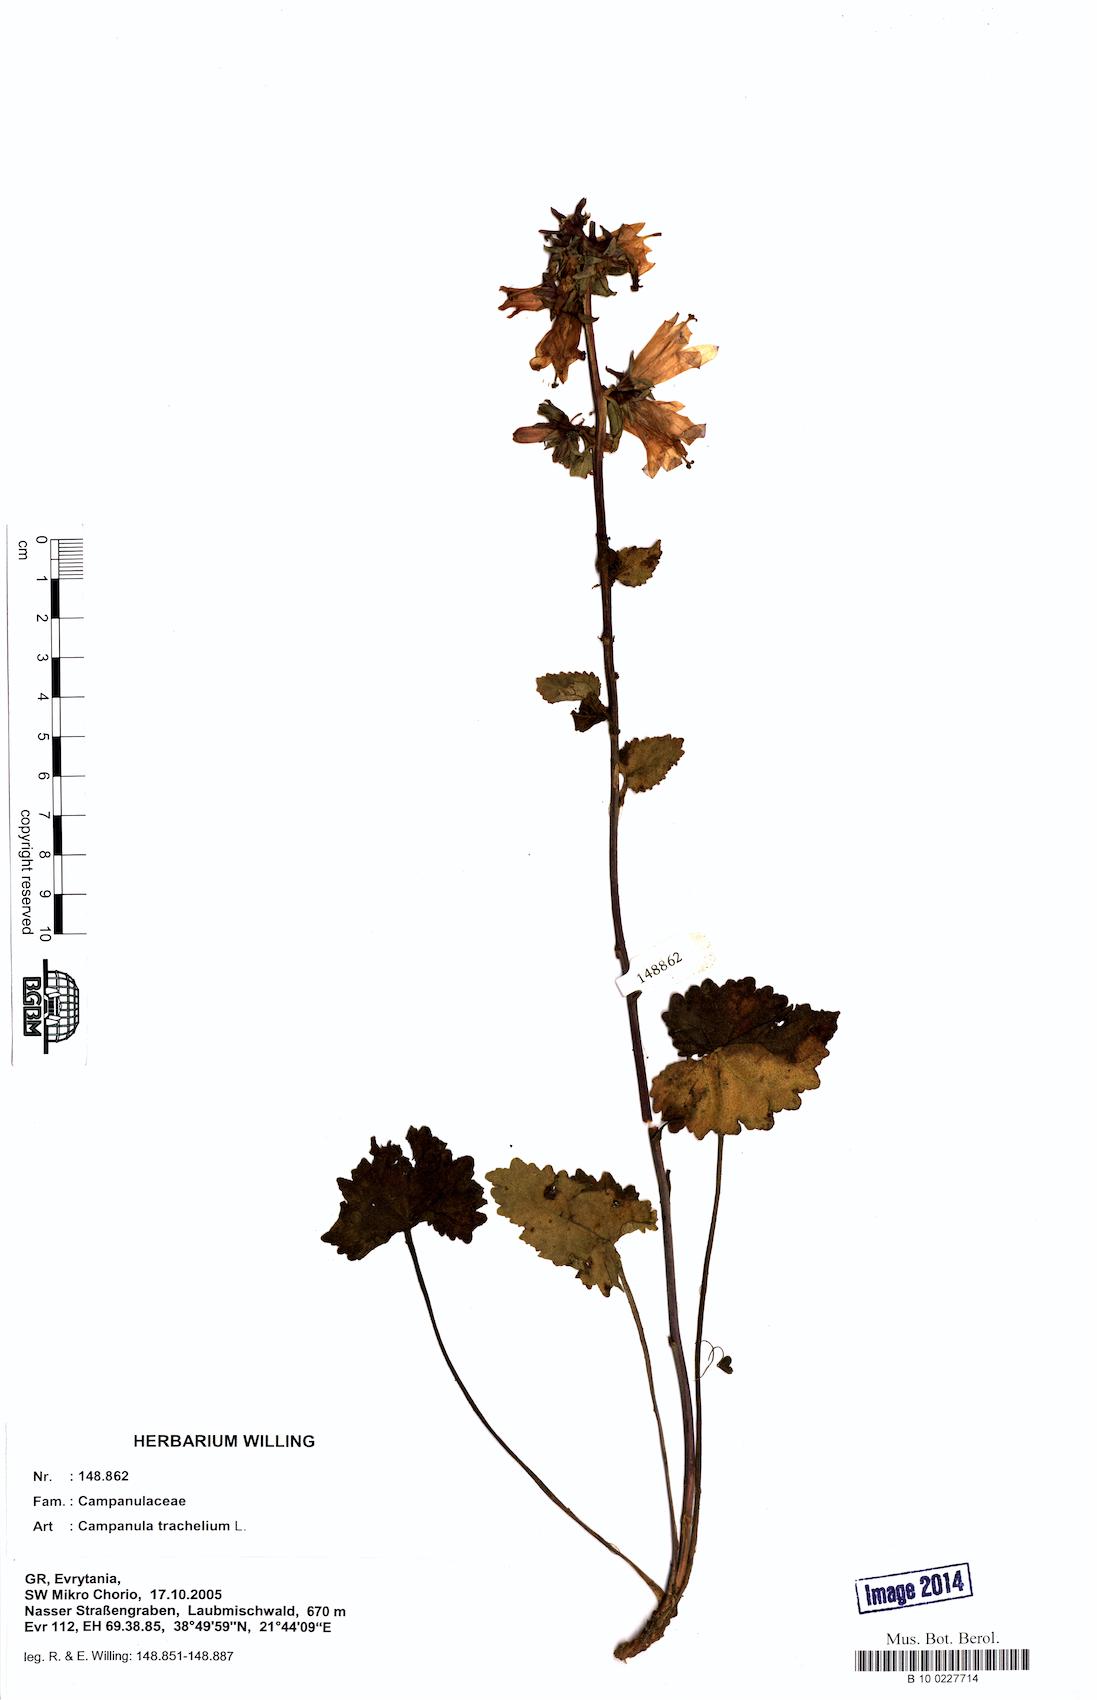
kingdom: Plantae
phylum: Tracheophyta
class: Magnoliopsida
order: Asterales
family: Campanulaceae
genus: Campanula
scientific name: Campanula trachelium
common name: Nettle-leaved bellflower
